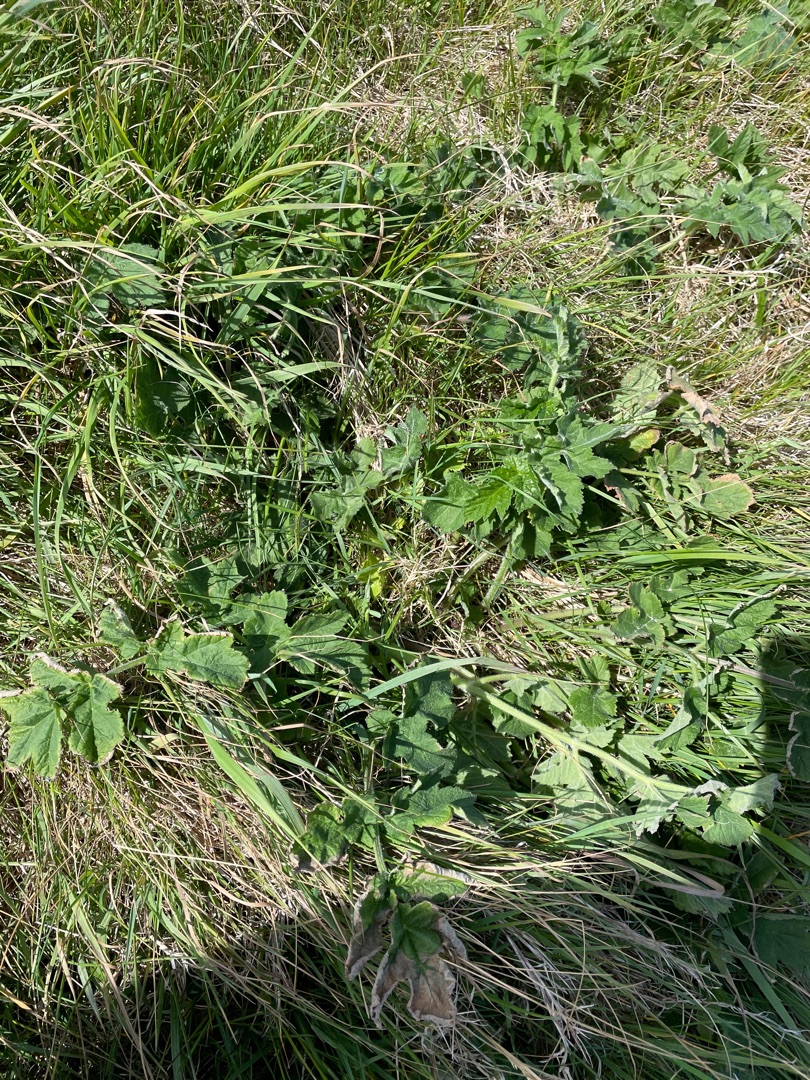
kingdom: Plantae
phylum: Tracheophyta
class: Magnoliopsida
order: Apiales
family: Apiaceae
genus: Heracleum
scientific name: Heracleum sphondylium
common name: Almindelig bjørneklo
